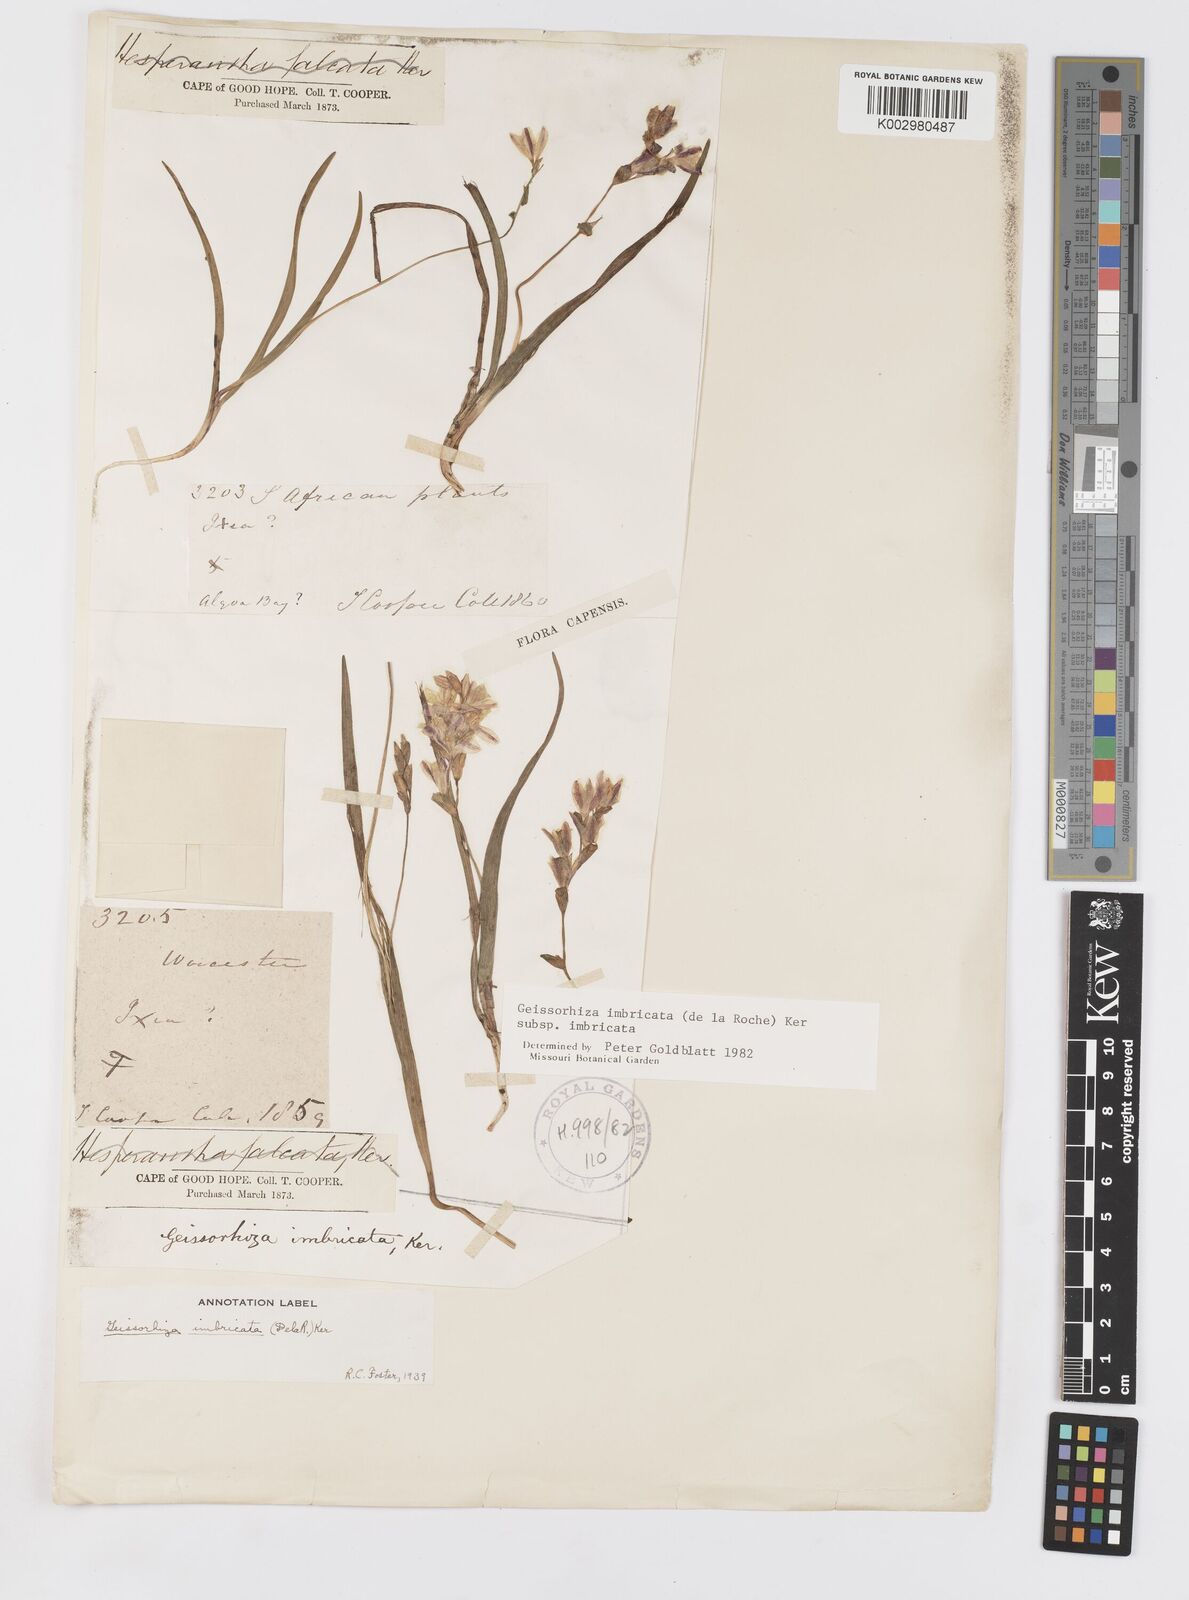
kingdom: Plantae
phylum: Tracheophyta
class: Liliopsida
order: Asparagales
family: Iridaceae
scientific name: Iridaceae
